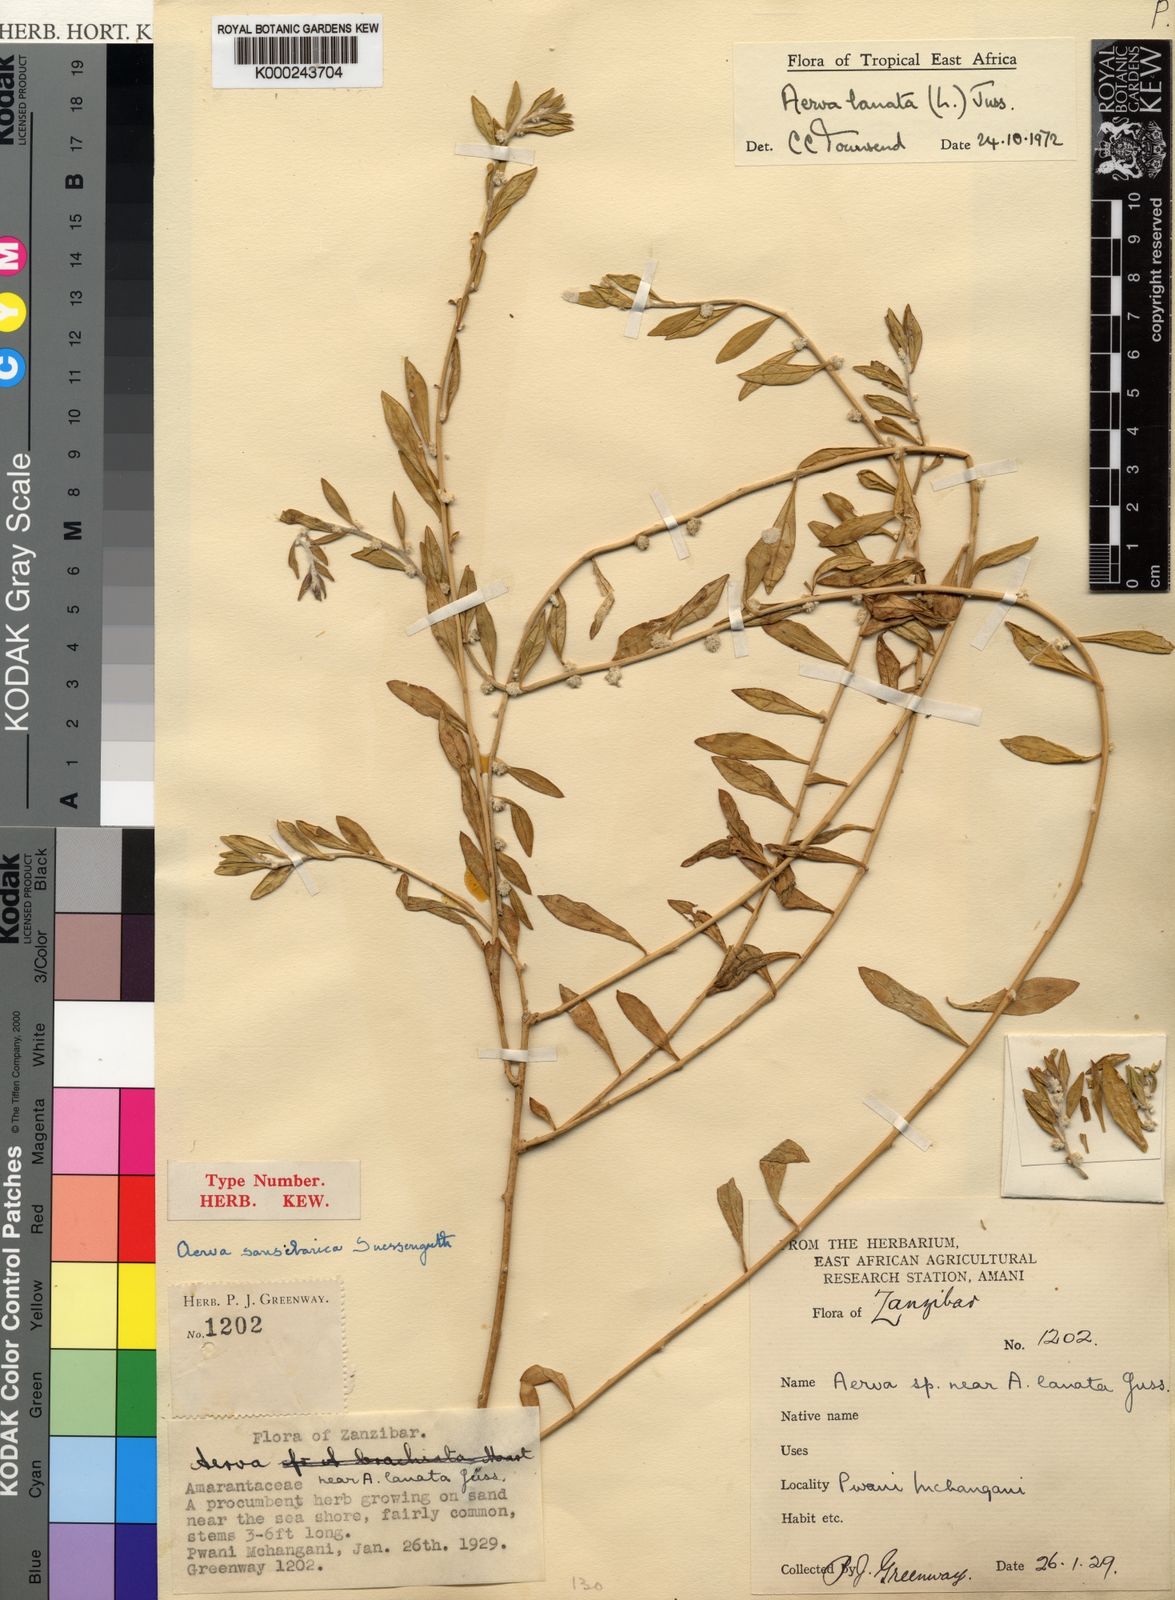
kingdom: Plantae
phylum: Tracheophyta
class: Magnoliopsida
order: Caryophyllales
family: Amaranthaceae
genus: Ouret
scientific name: Ouret lanata
